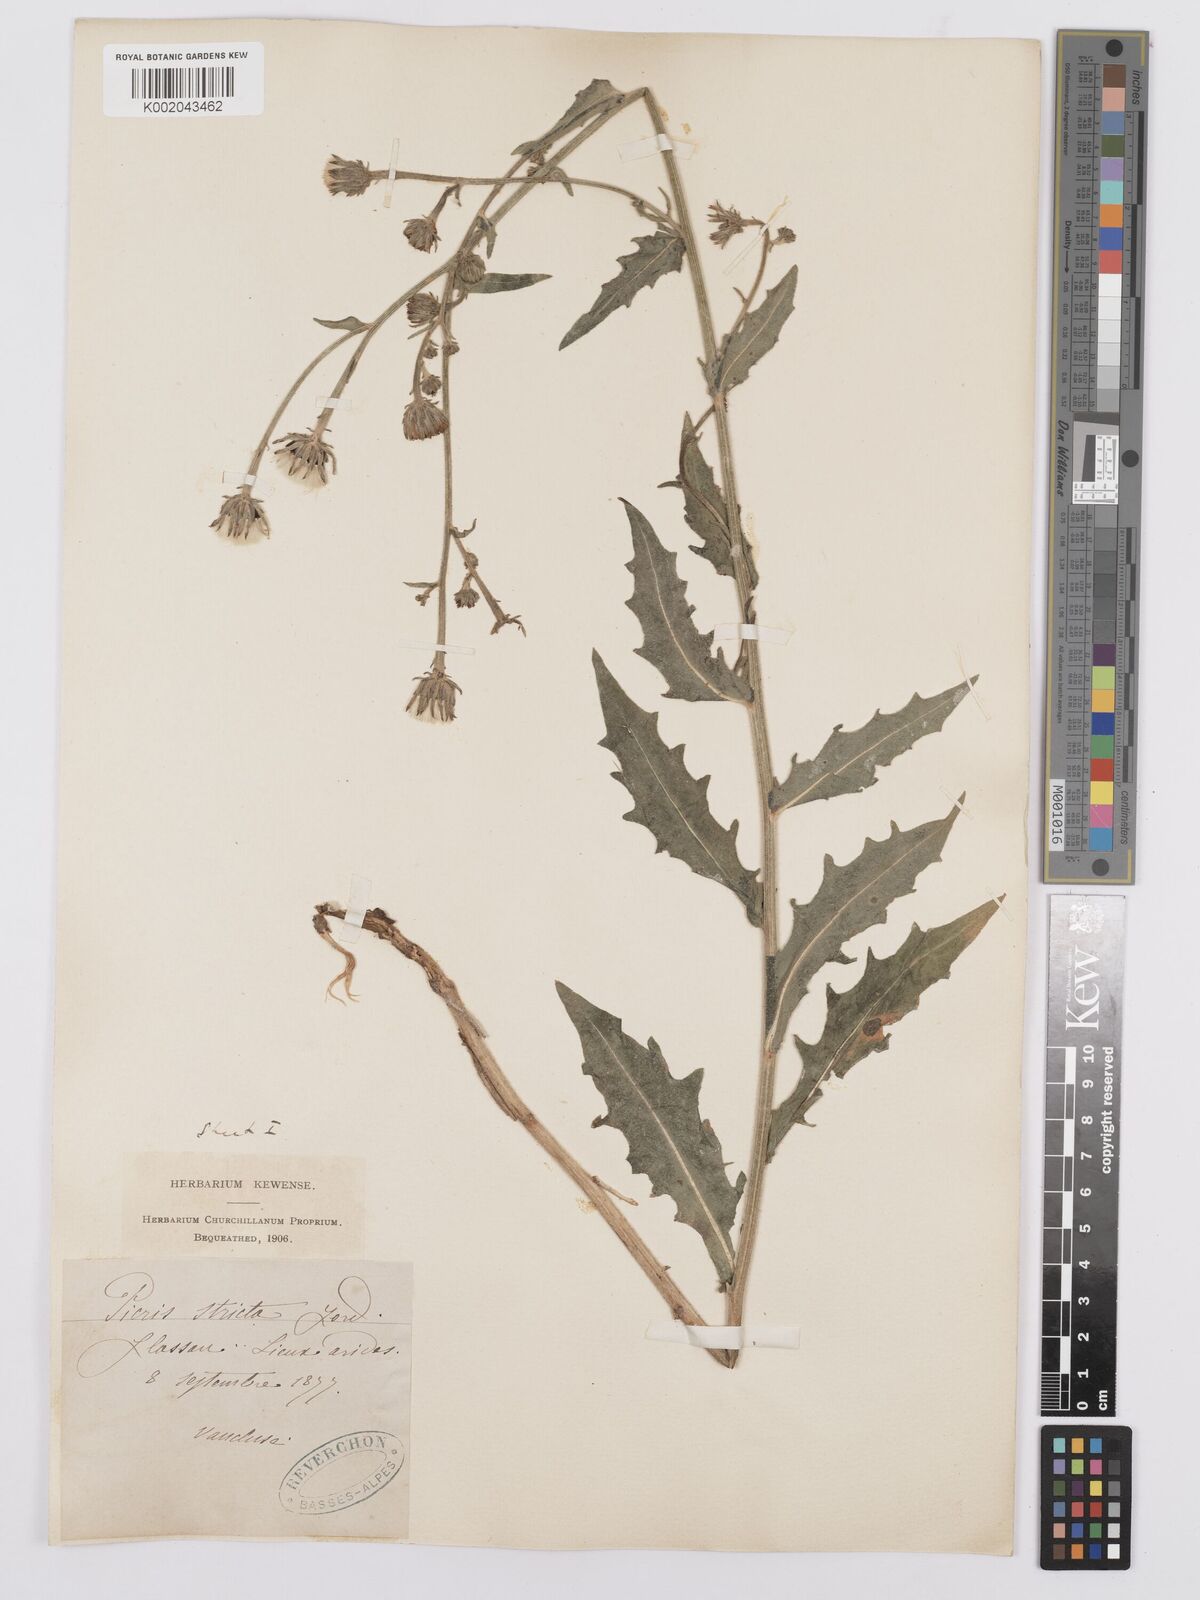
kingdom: Plantae
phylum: Tracheophyta
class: Magnoliopsida
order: Asterales
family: Asteraceae
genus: Picris
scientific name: Picris hieracioides
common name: Hawkweed oxtongue
